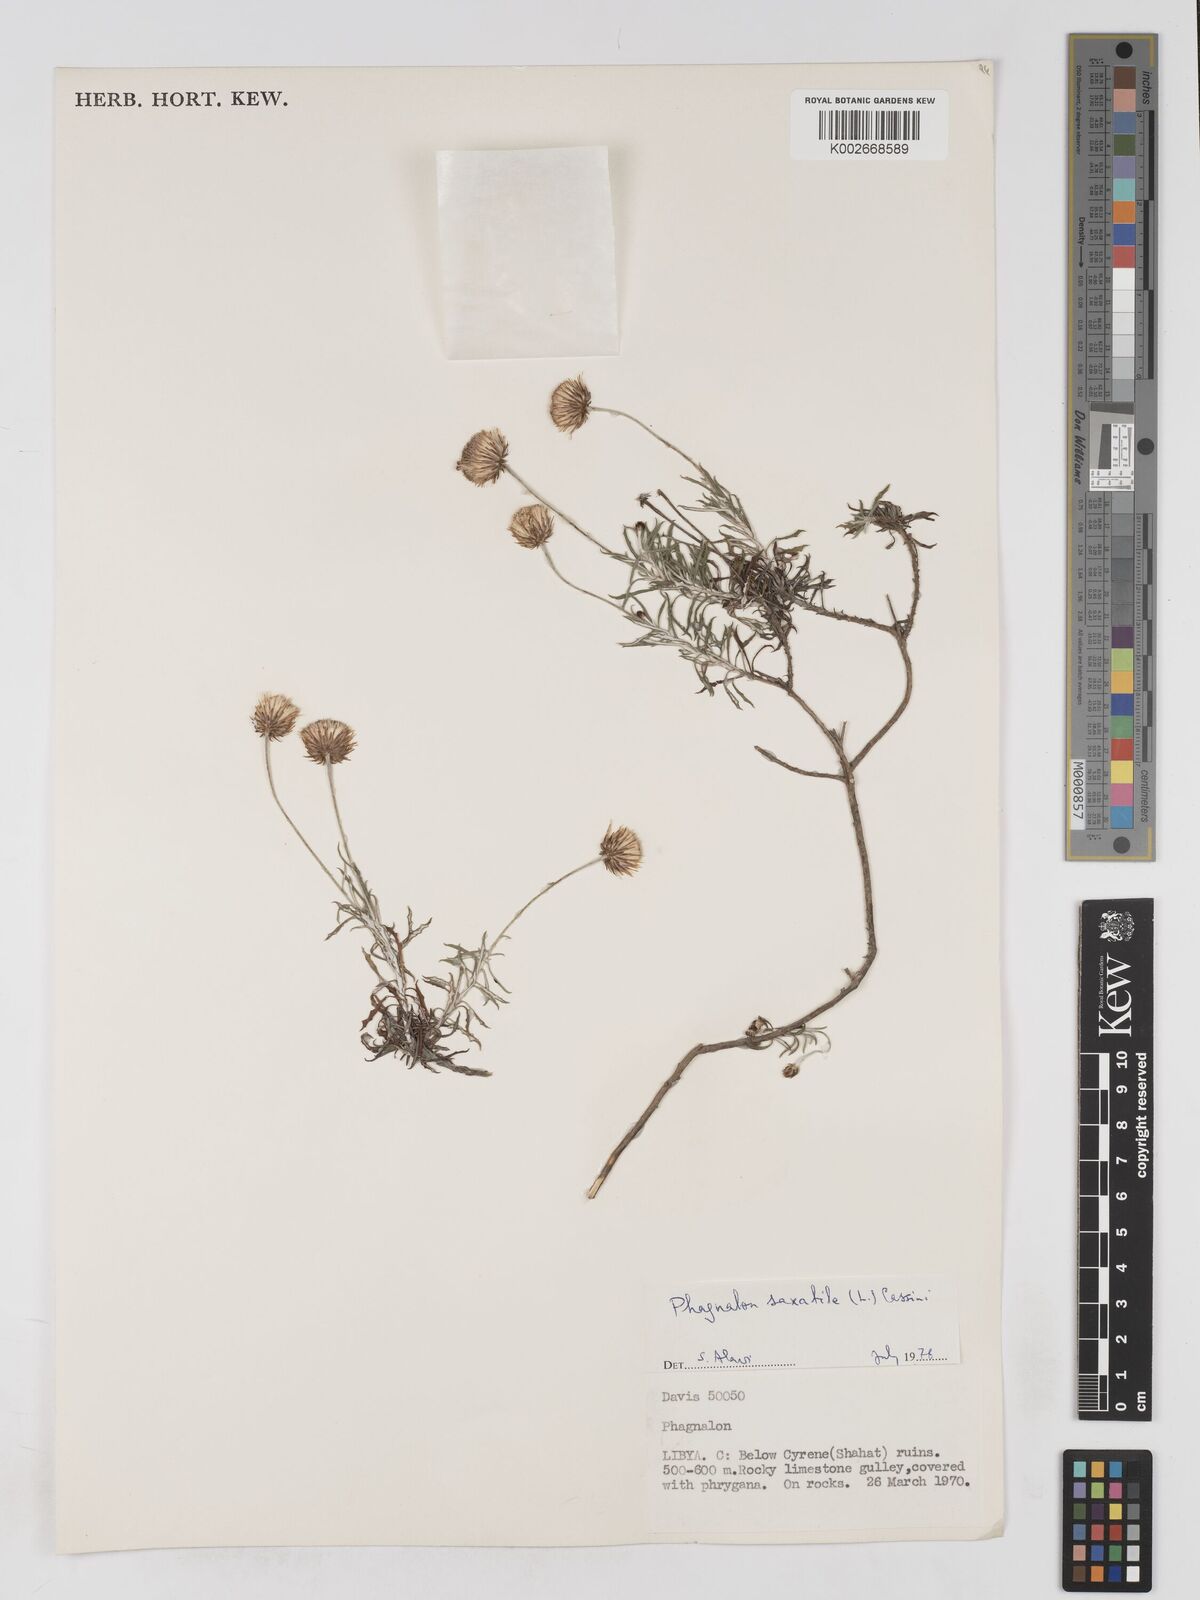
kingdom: Plantae
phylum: Tracheophyta
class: Magnoliopsida
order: Asterales
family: Asteraceae
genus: Phagnalon
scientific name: Phagnalon rupestre
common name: Rock phagnalon
